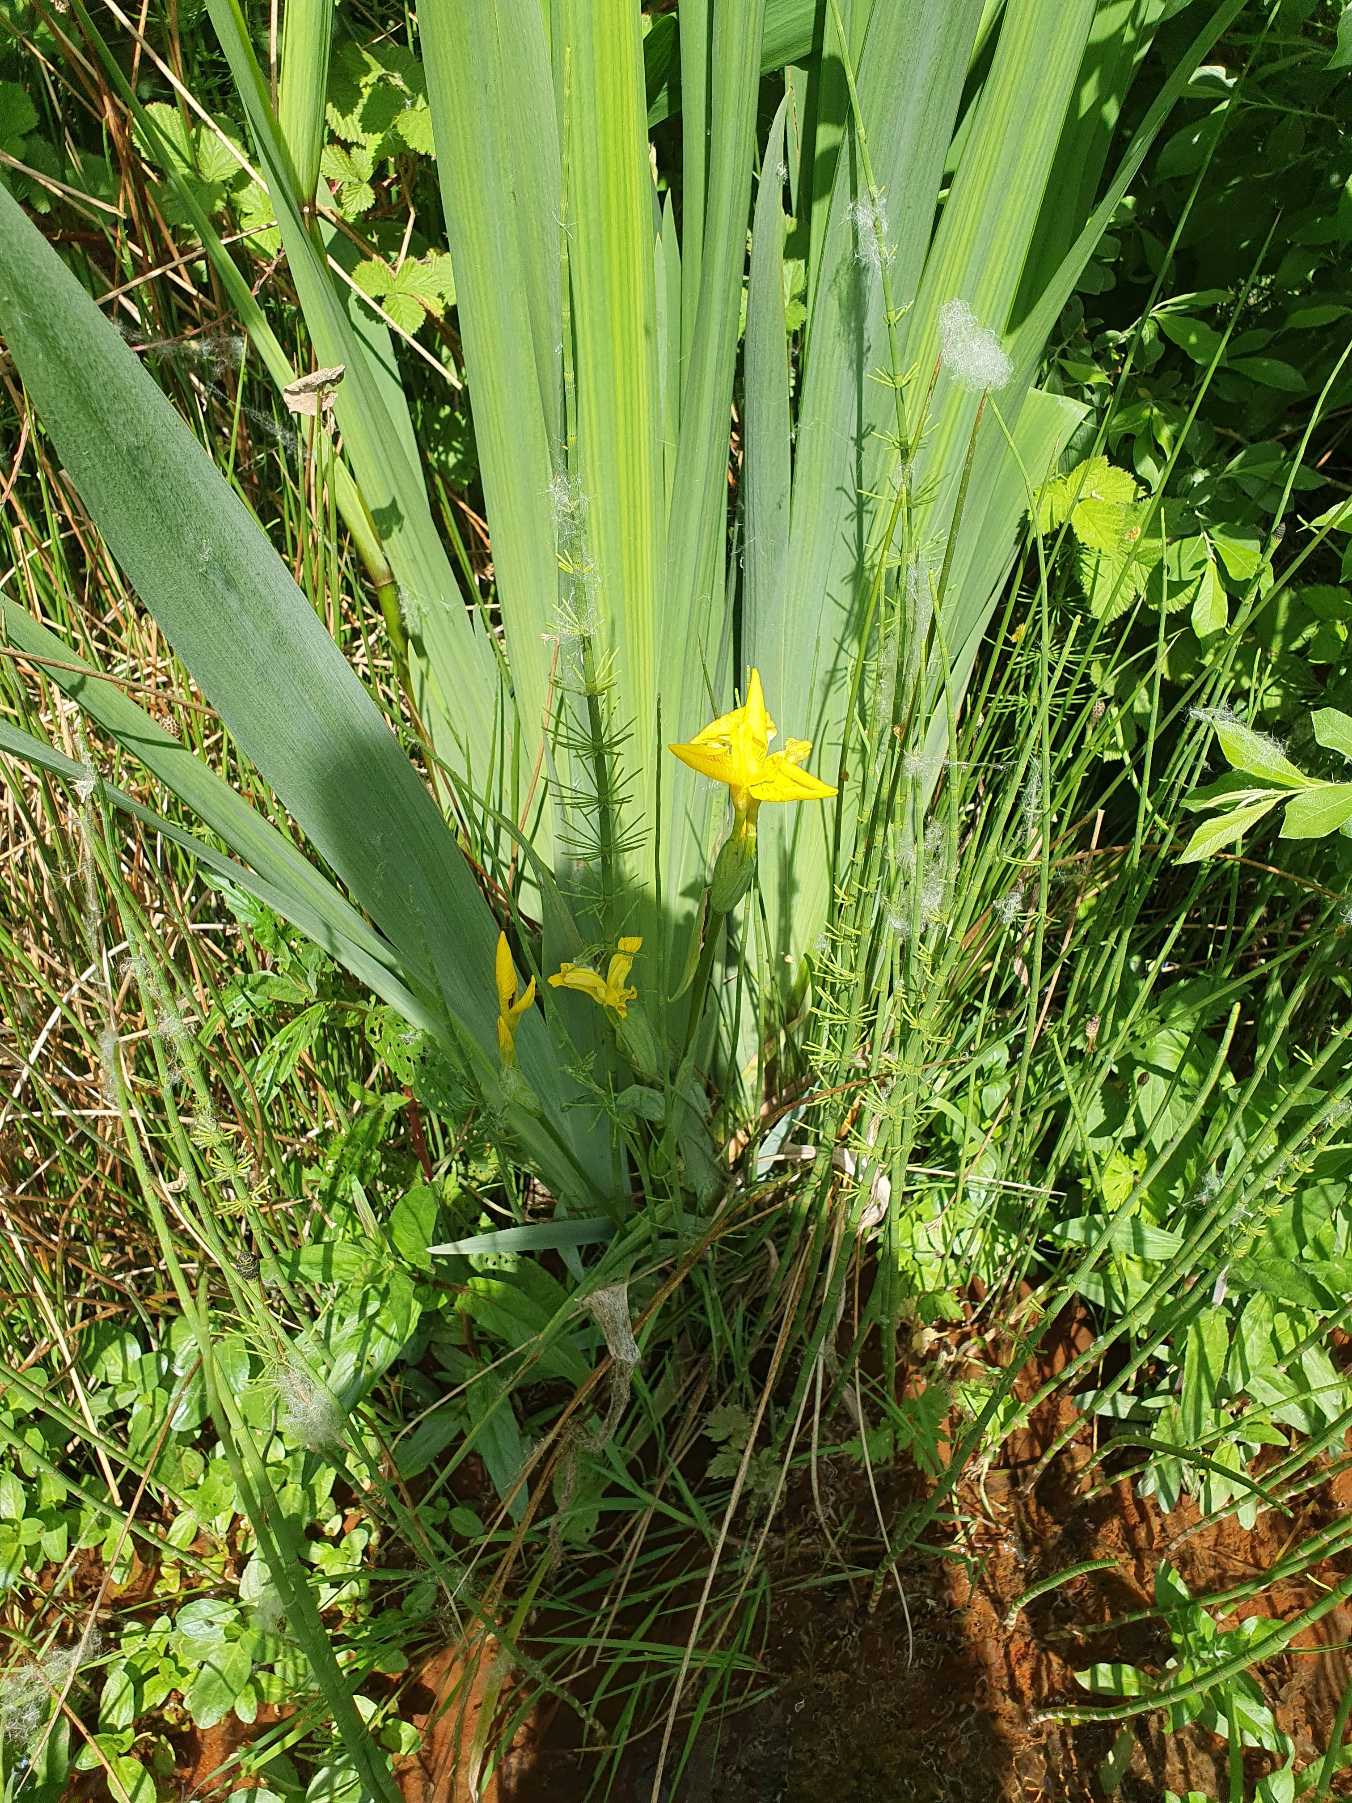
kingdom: Plantae
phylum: Tracheophyta
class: Liliopsida
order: Asparagales
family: Iridaceae
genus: Iris
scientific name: Iris pseudacorus
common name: Gul iris
